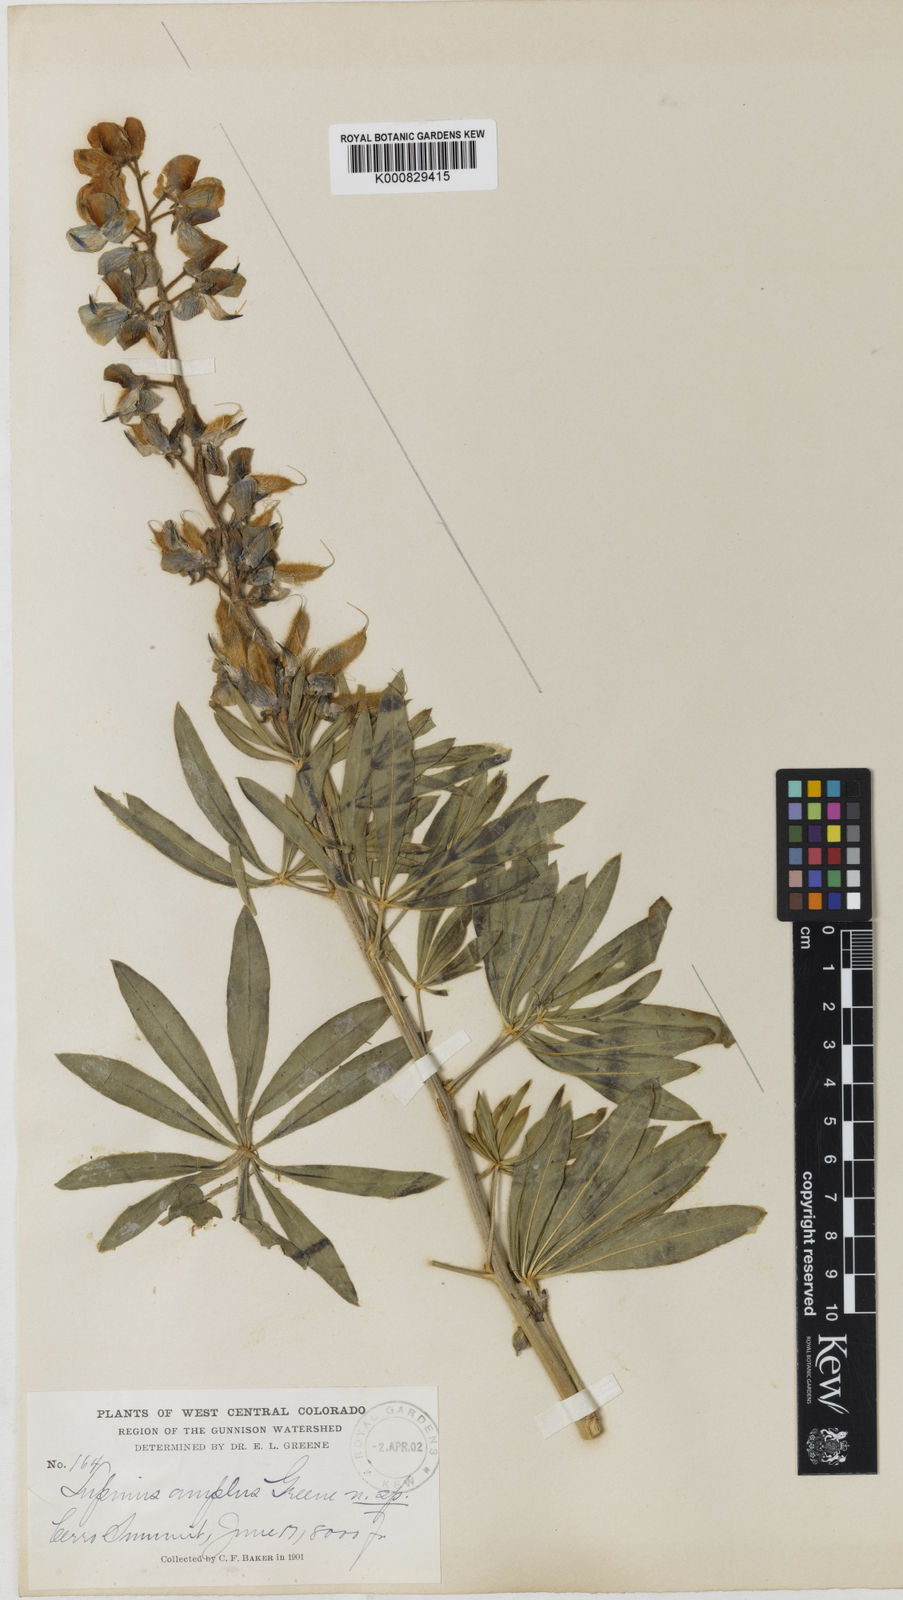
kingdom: Plantae
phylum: Tracheophyta
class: Magnoliopsida
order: Fabales
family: Fabaceae
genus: Lupinus
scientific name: Lupinus prunophilus
